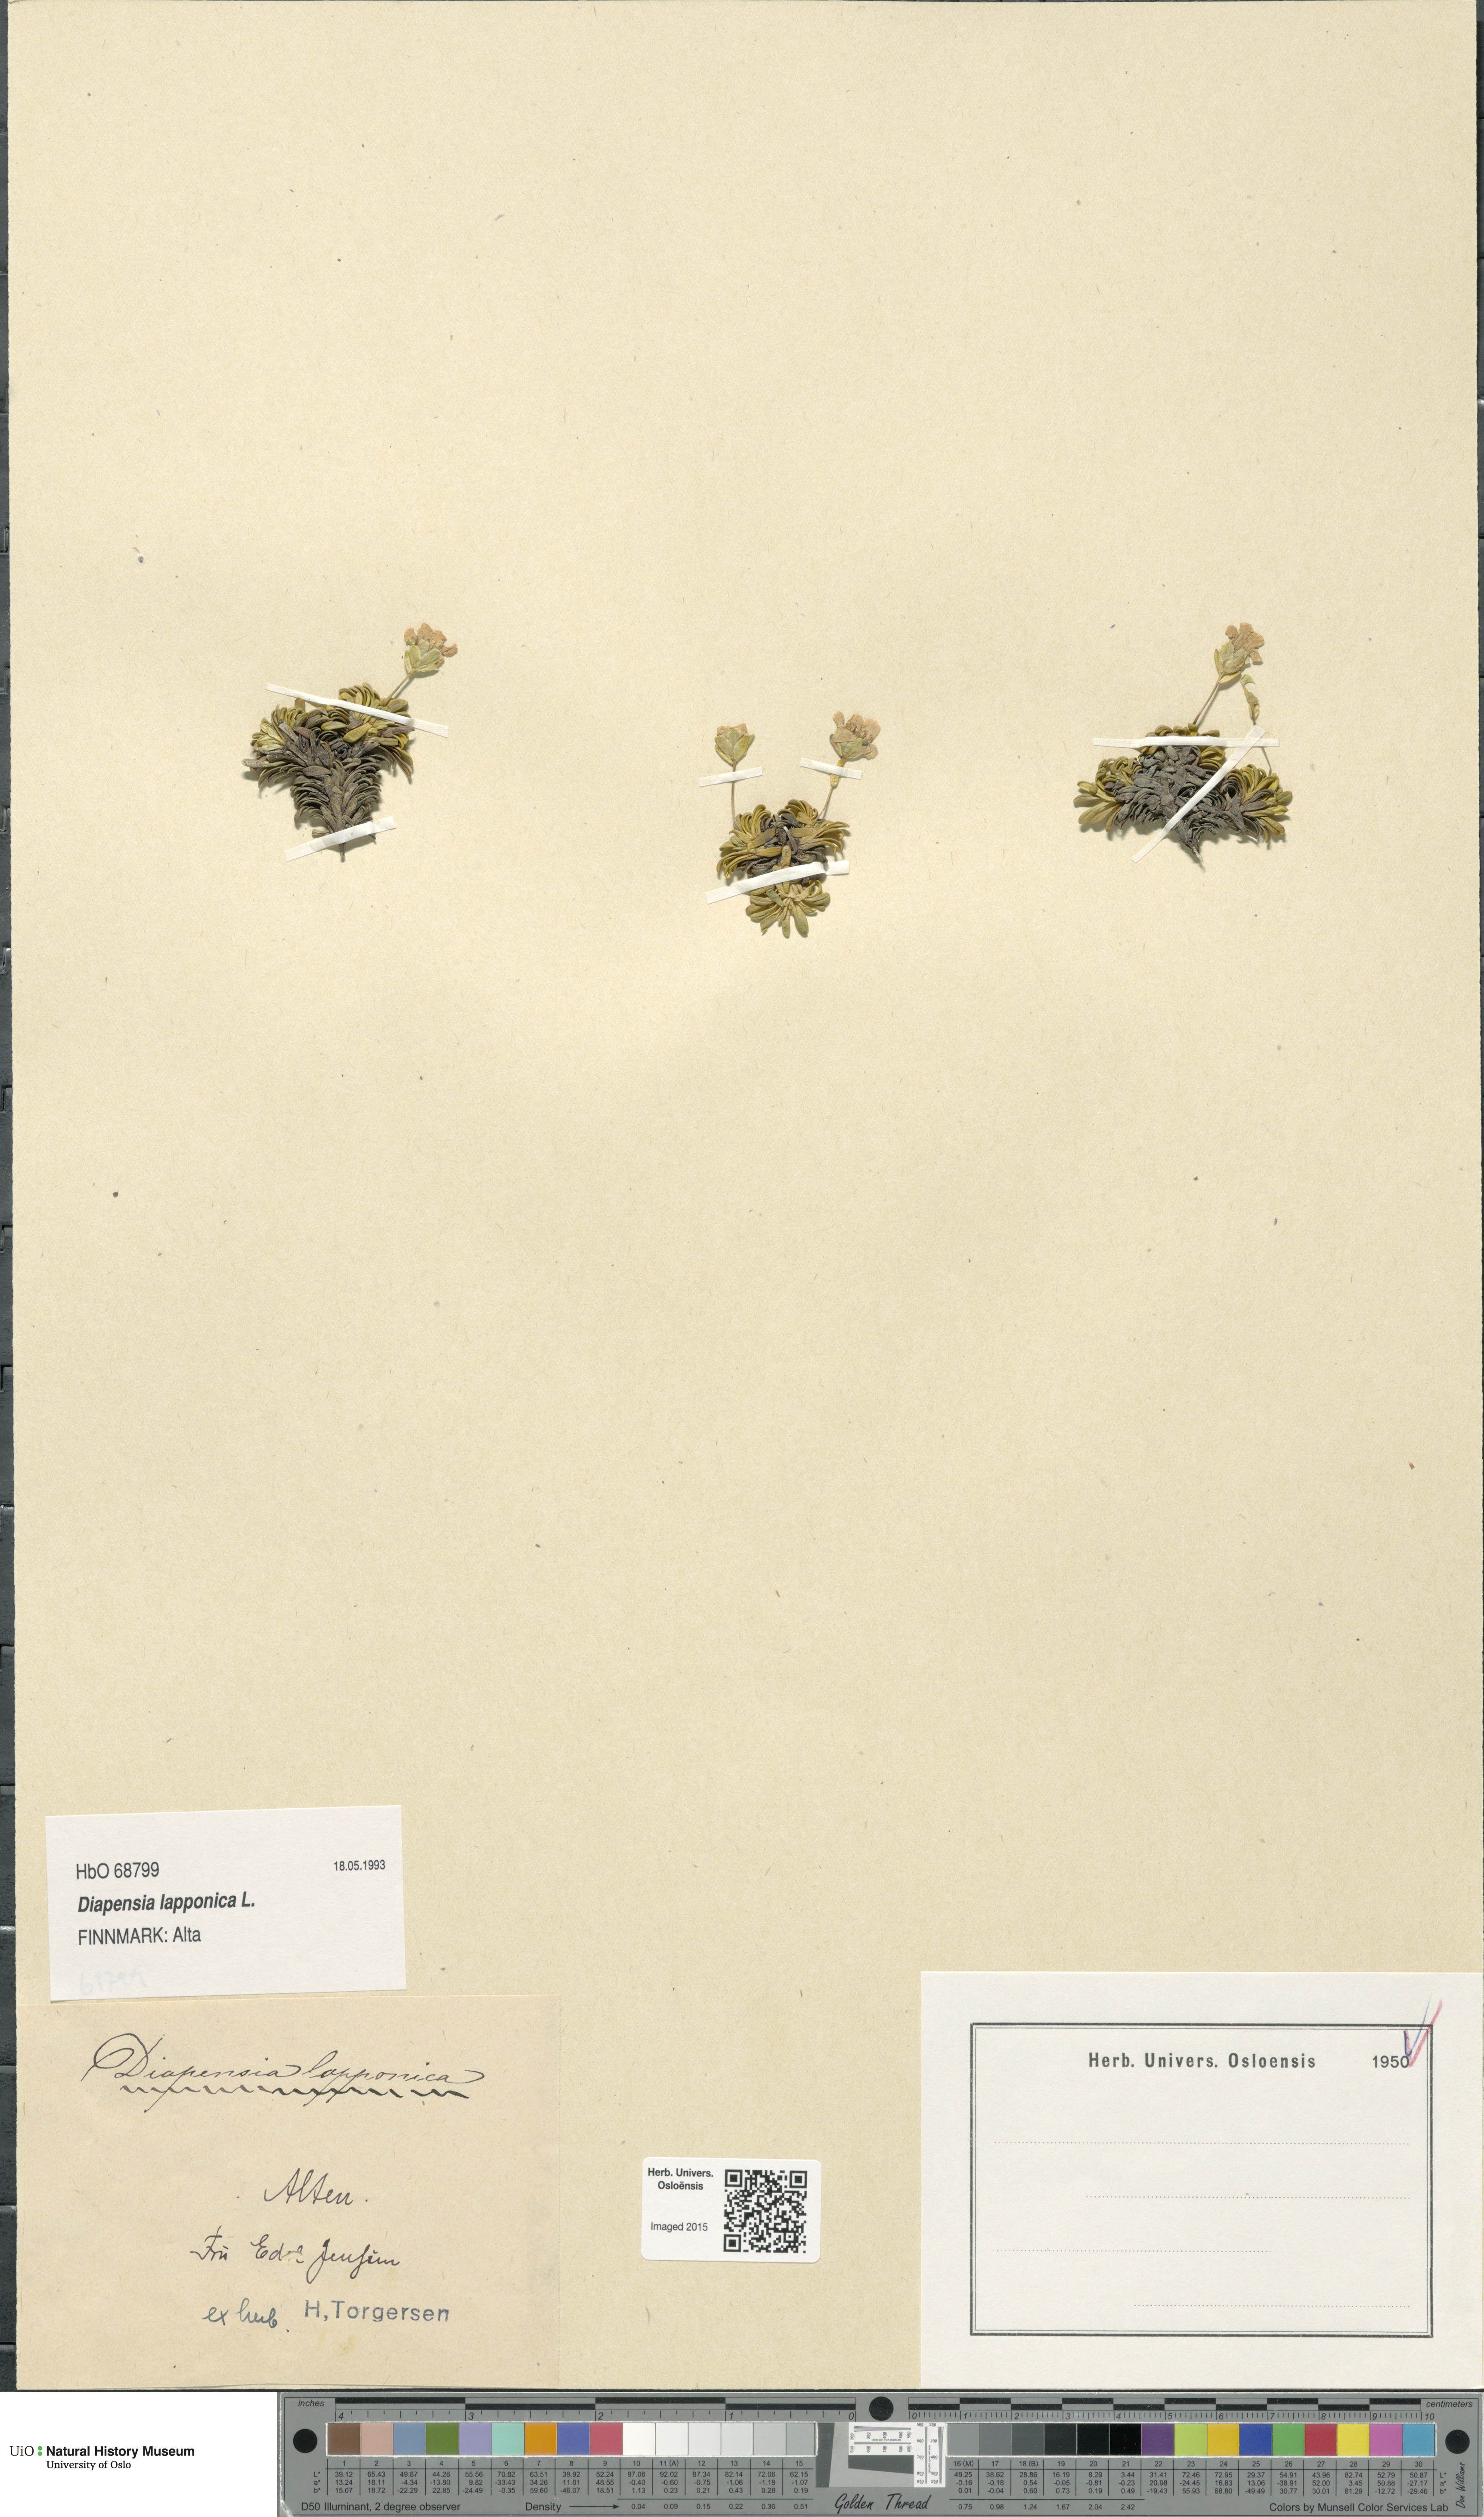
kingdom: Plantae
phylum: Tracheophyta
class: Magnoliopsida
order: Ericales
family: Diapensiaceae
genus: Diapensia
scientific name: Diapensia lapponica
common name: Diapensia
